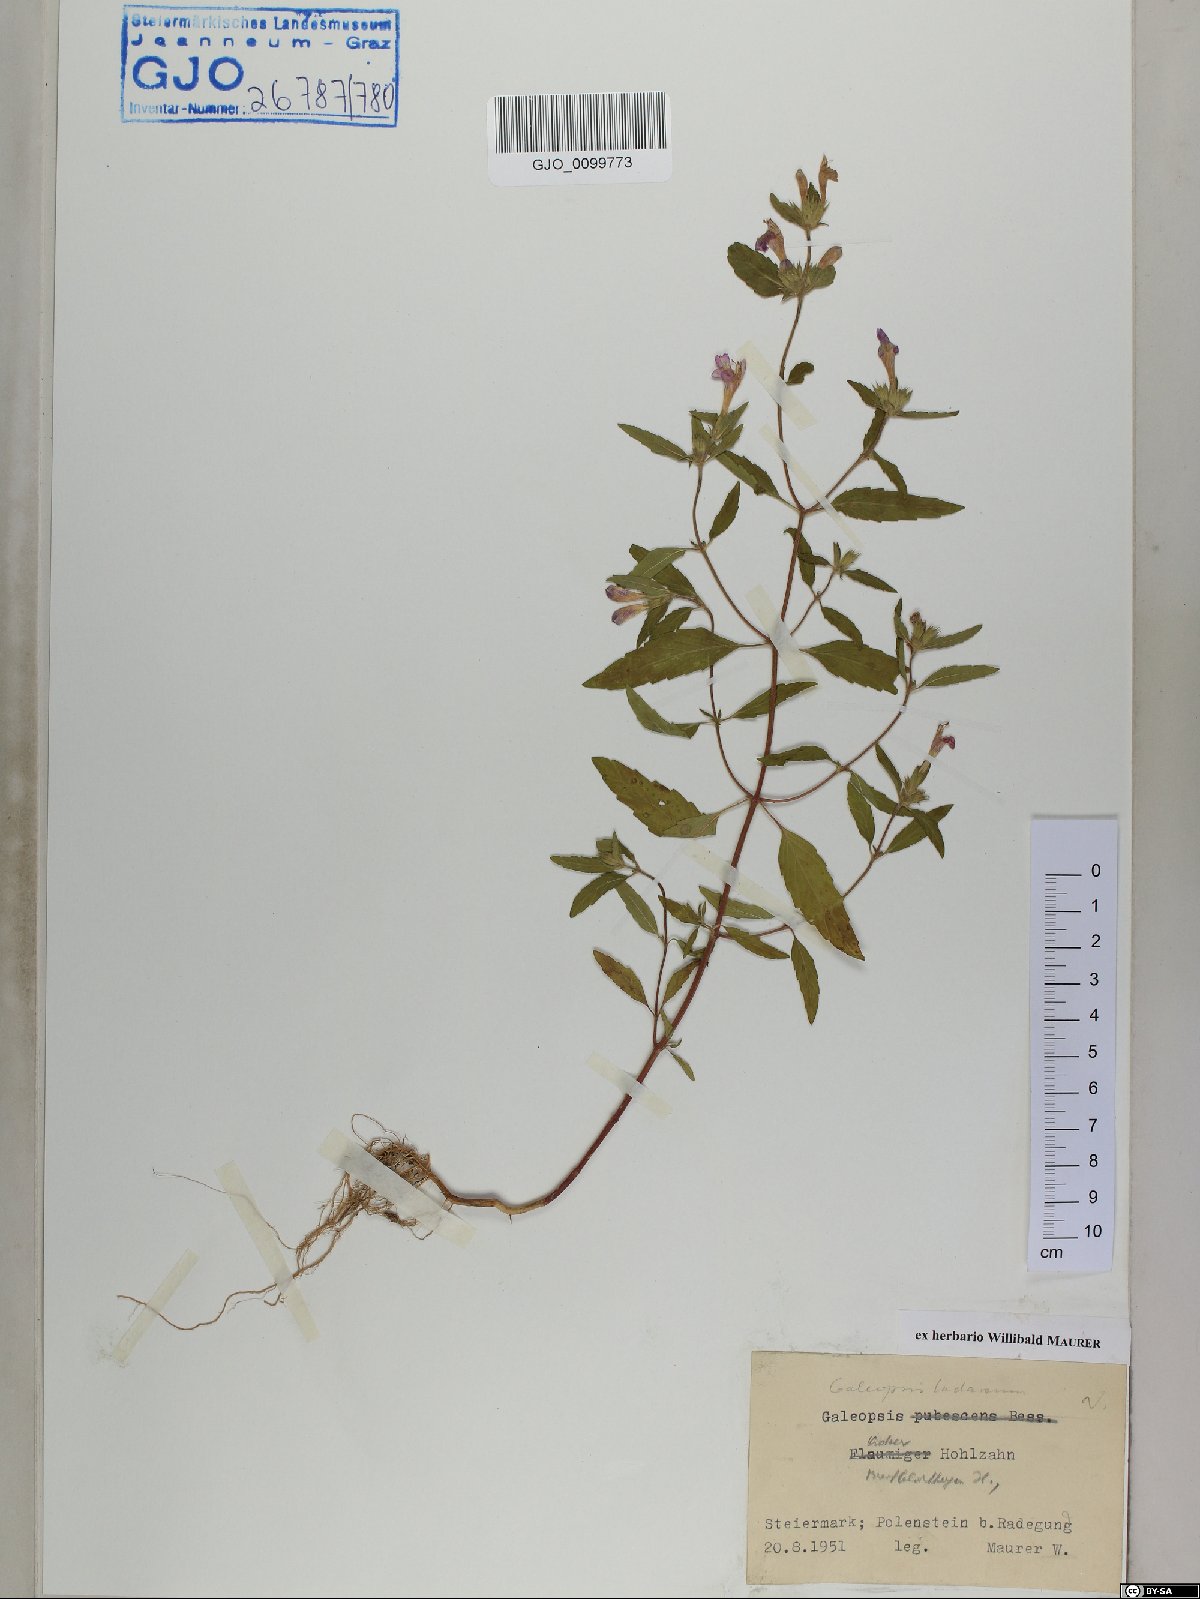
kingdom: Plantae
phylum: Tracheophyta
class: Magnoliopsida
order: Lamiales
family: Lamiaceae
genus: Galeopsis
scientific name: Galeopsis ladanum
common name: Broad-leaved hemp-nettle
